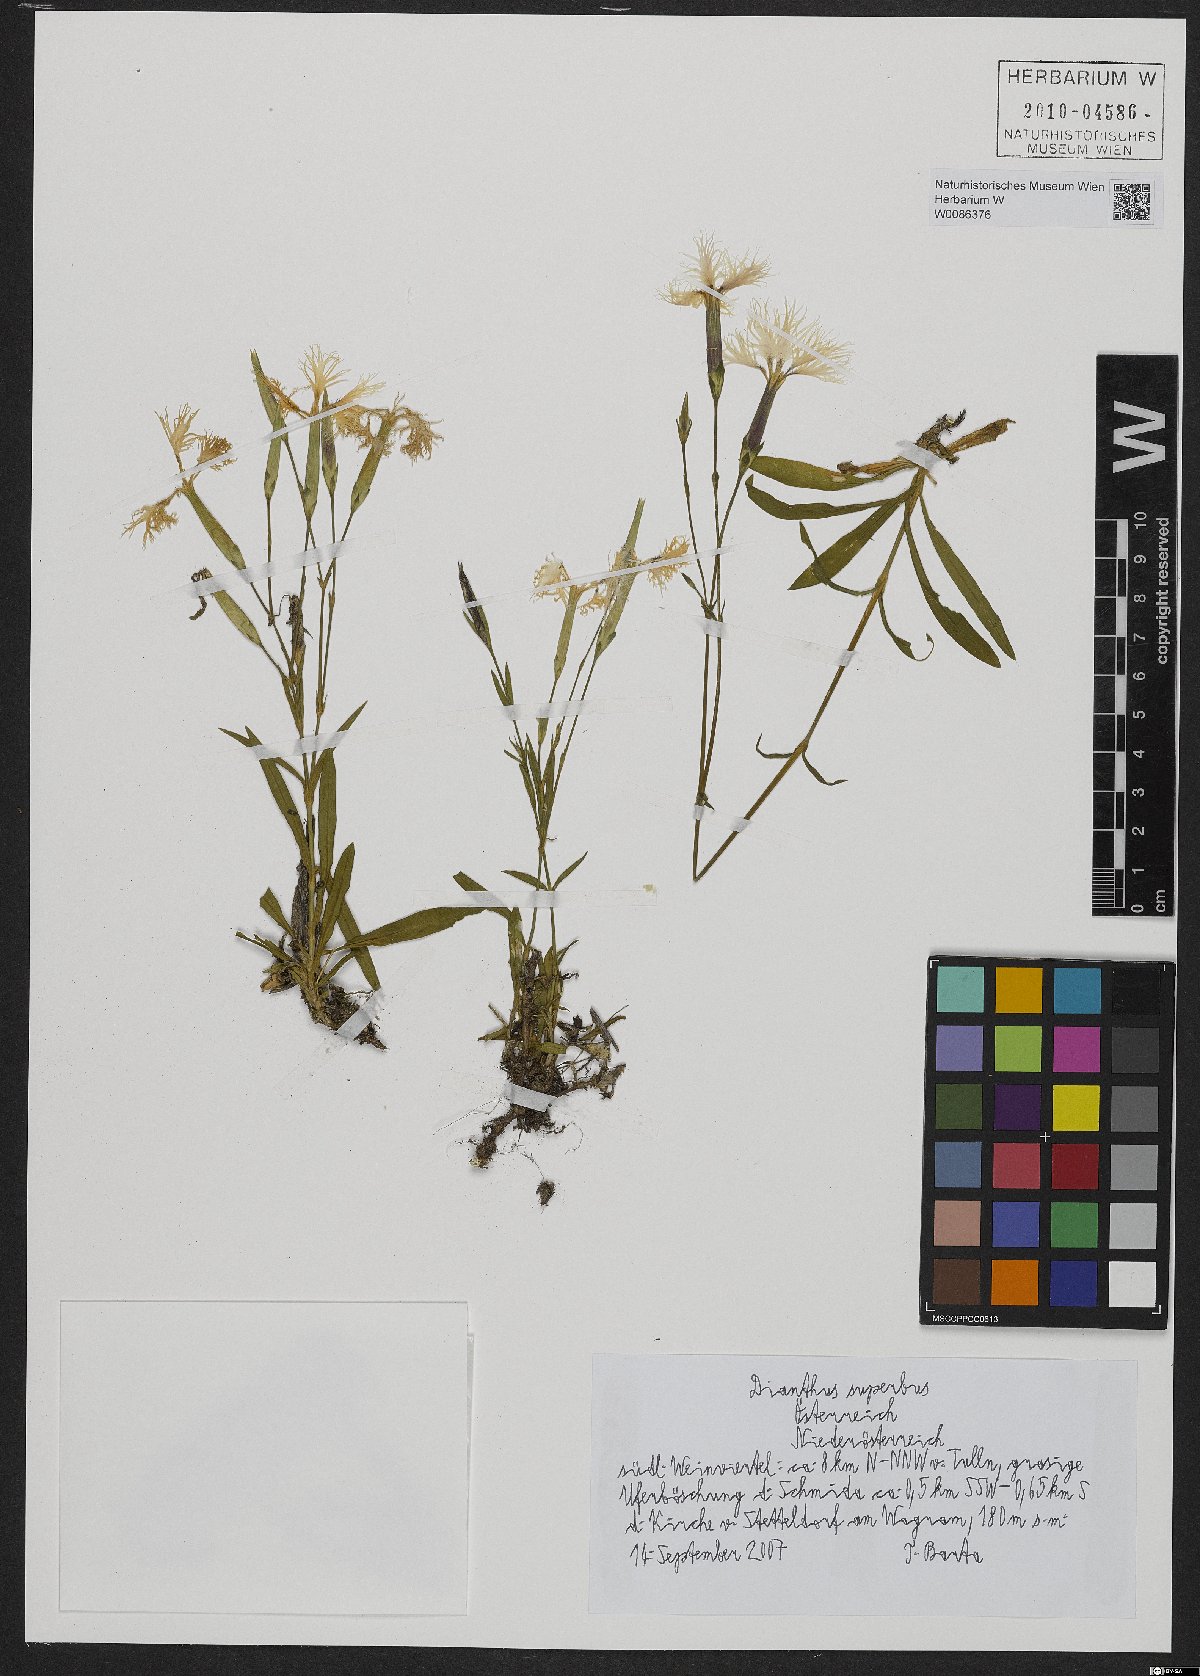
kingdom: Plantae
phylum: Tracheophyta
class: Magnoliopsida
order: Caryophyllales
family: Caryophyllaceae
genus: Dianthus
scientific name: Dianthus superbus
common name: Fringed pink
